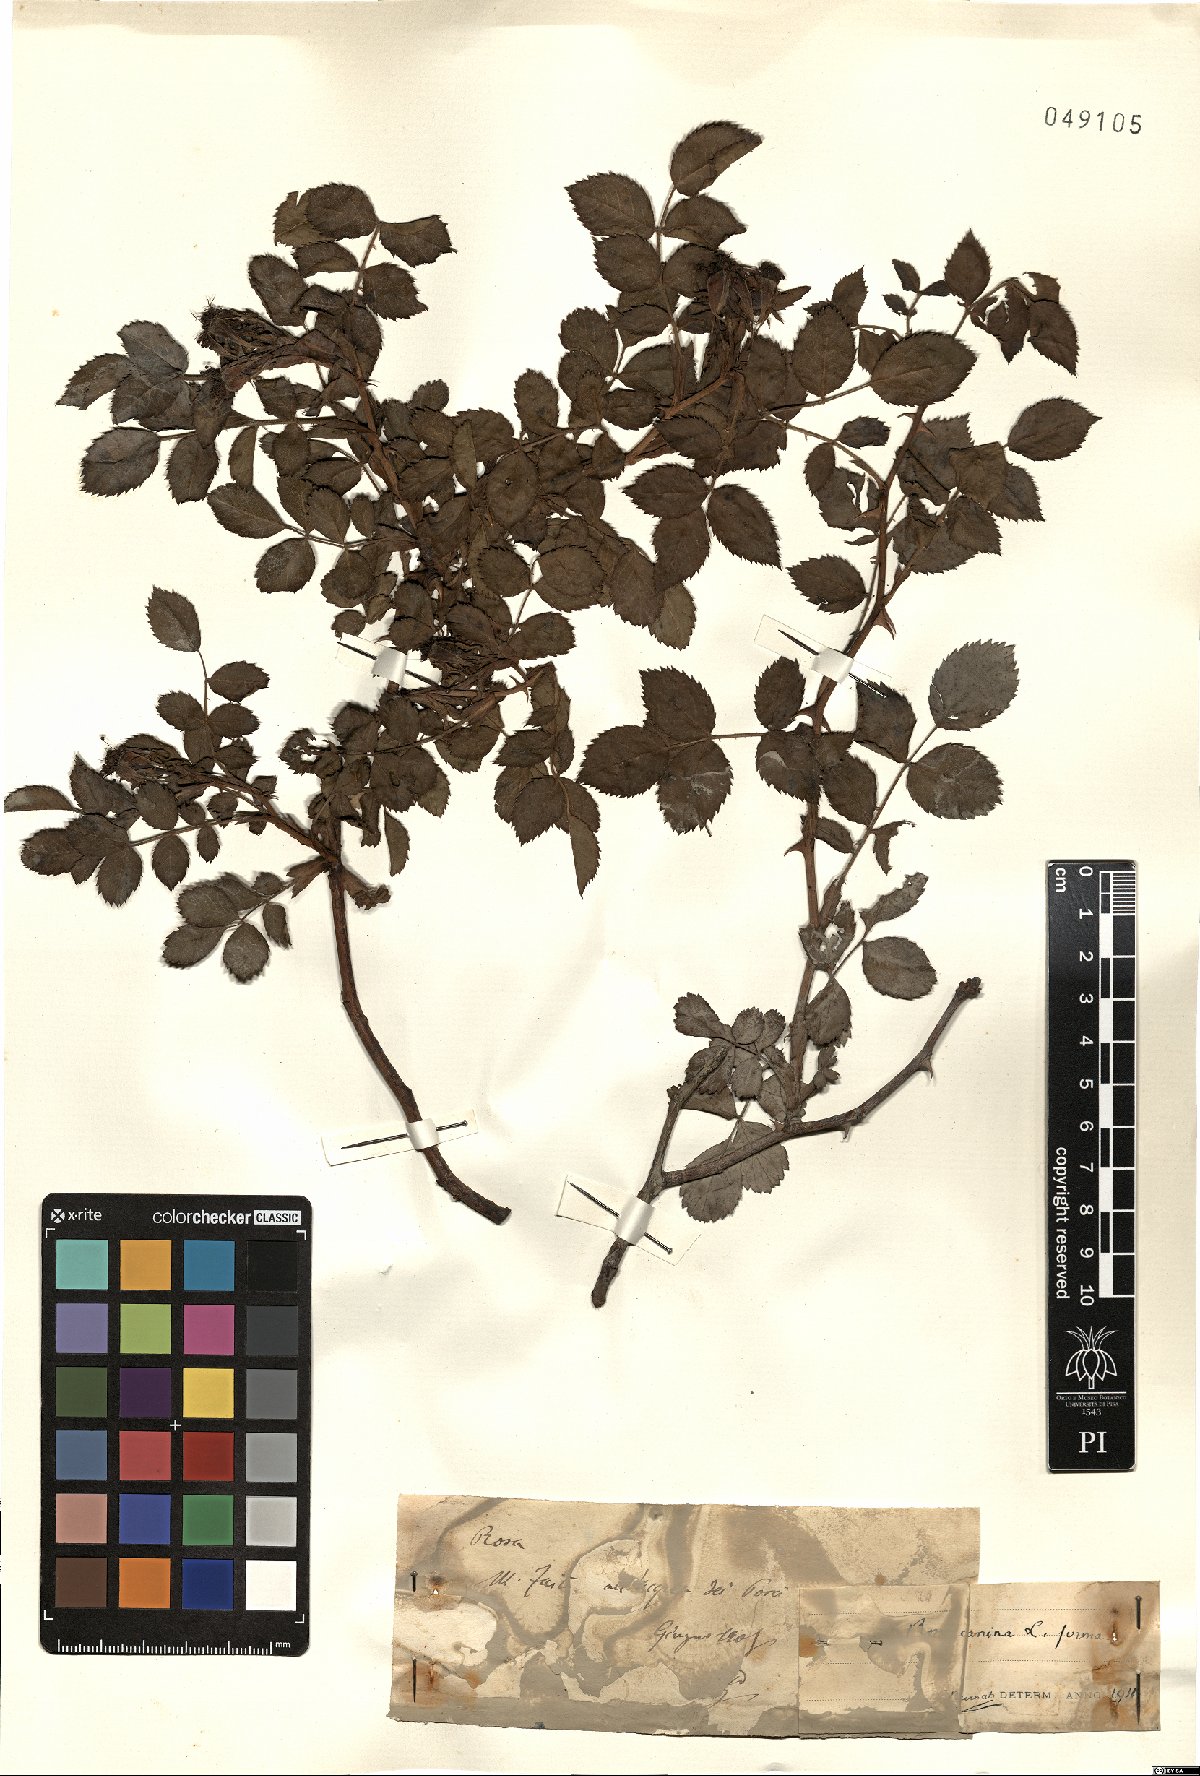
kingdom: Plantae
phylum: Tracheophyta
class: Magnoliopsida
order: Rosales
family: Rosaceae
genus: Rosa
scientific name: Rosa canina
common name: Dog rose
